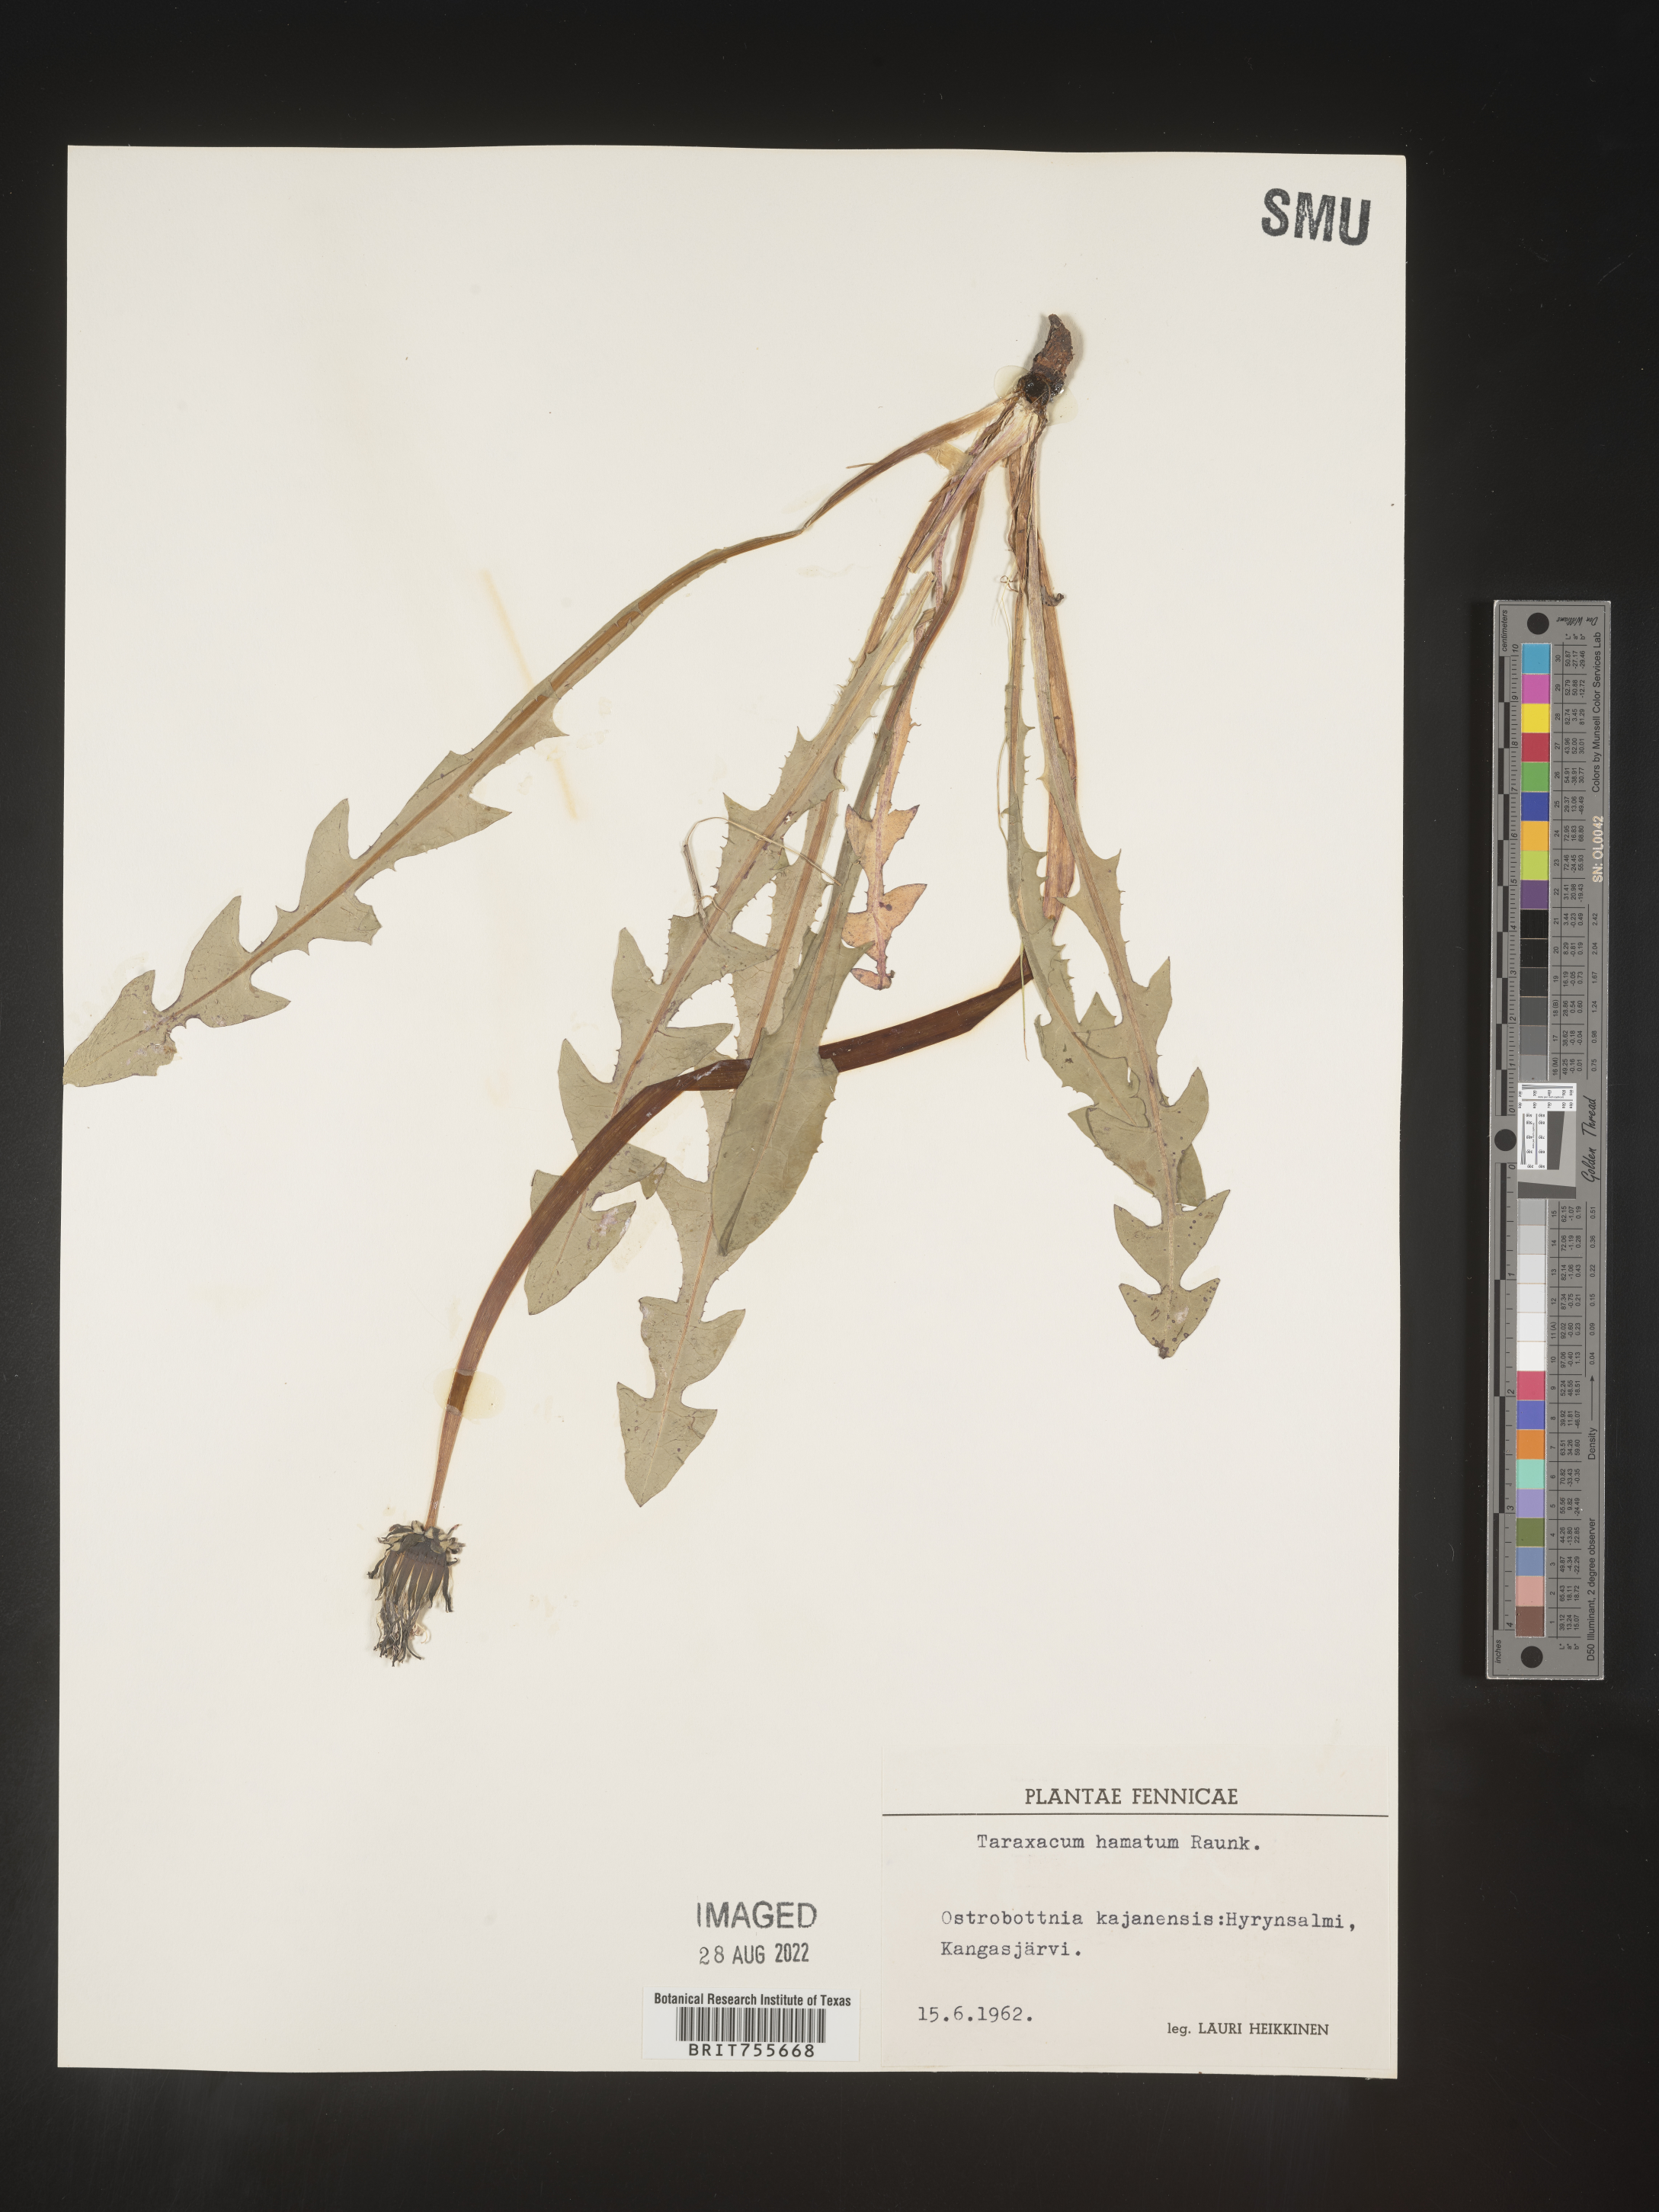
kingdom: Plantae
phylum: Tracheophyta
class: Magnoliopsida
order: Asterales
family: Asteraceae
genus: Taraxacum
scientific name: Taraxacum
